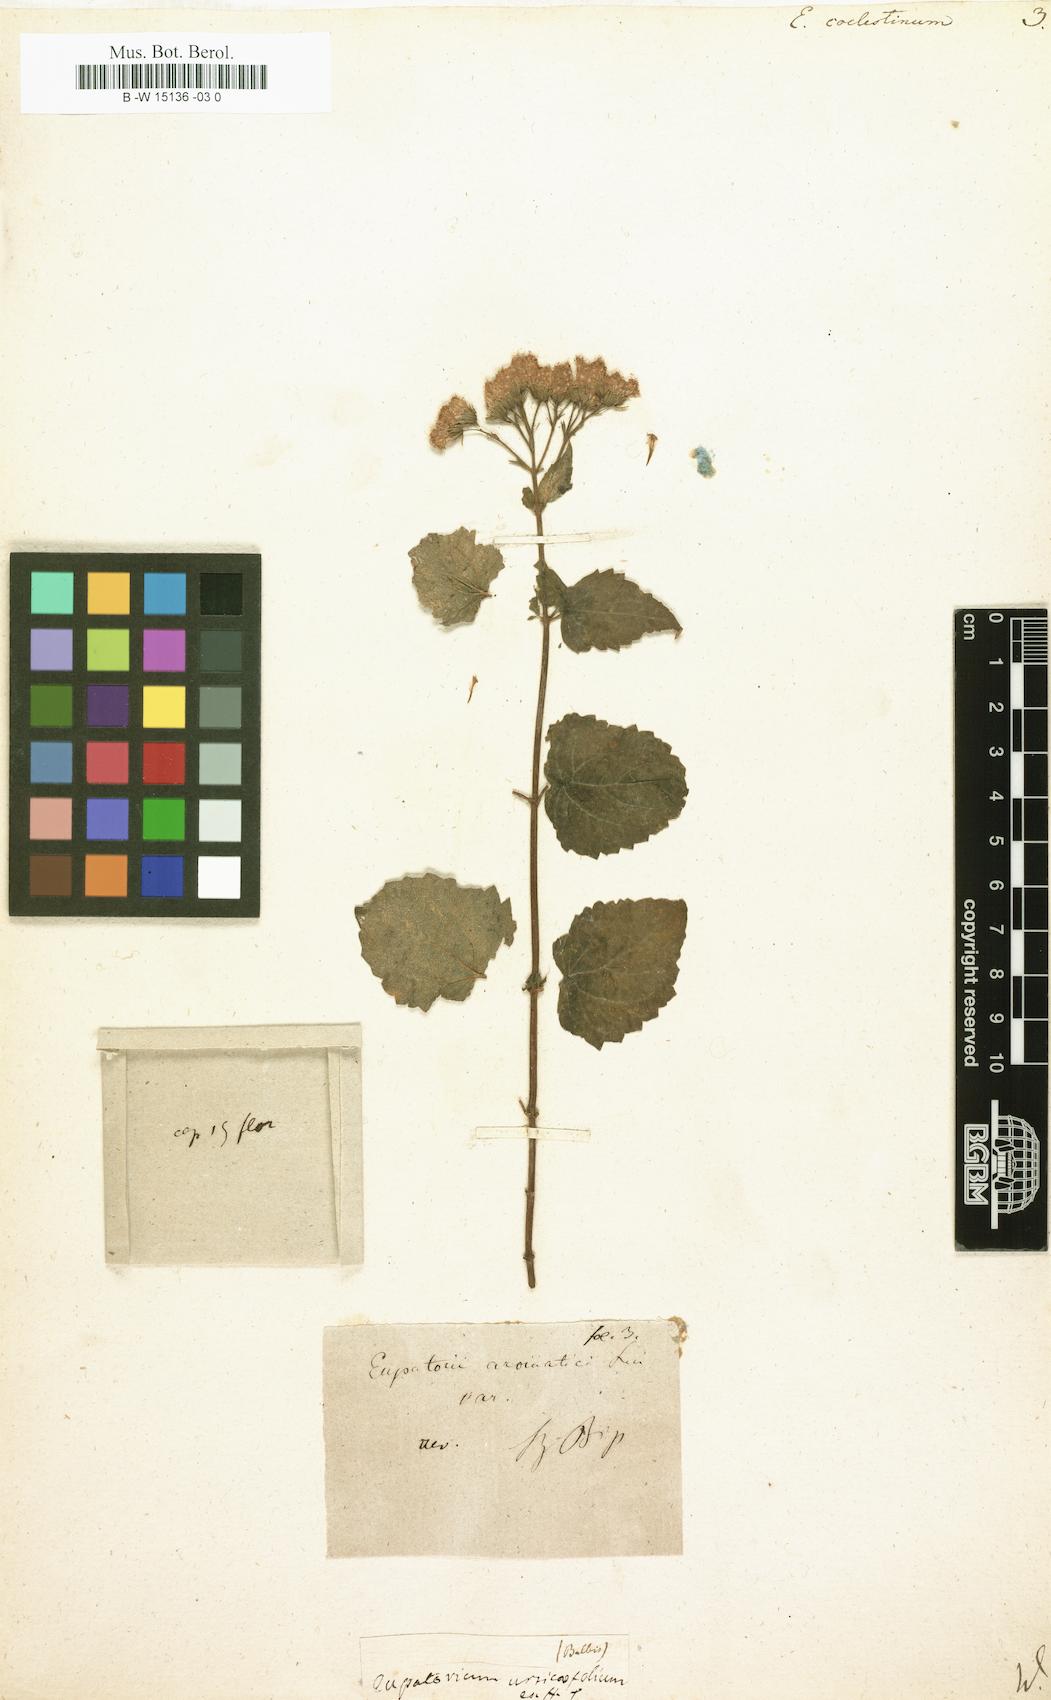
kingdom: Plantae
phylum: Tracheophyta
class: Magnoliopsida
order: Asterales
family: Asteraceae
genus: Eupatorium
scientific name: Eupatorium coelestinum
